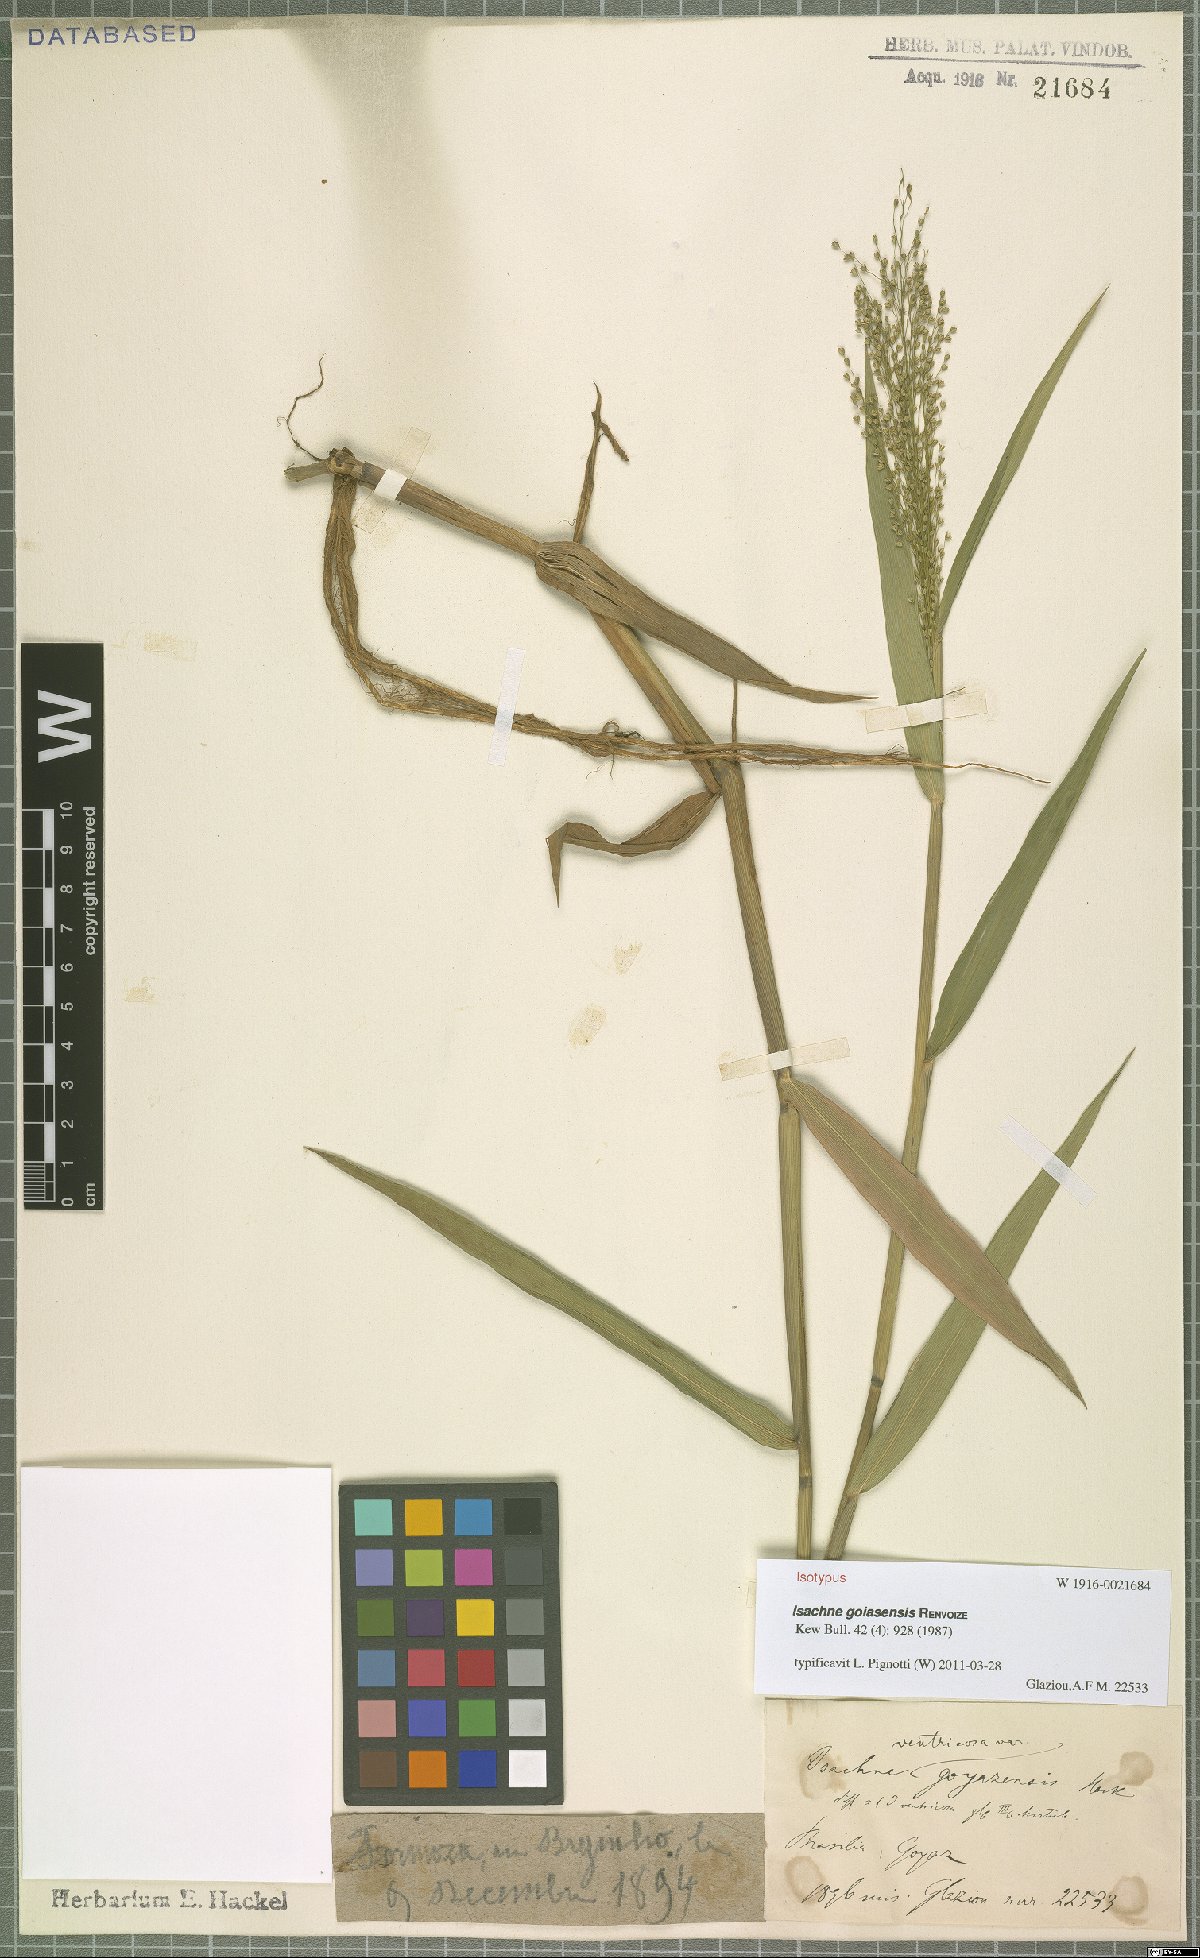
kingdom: Plantae
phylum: Tracheophyta
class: Liliopsida
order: Poales
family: Poaceae
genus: Isachne
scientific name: Isachne goiasensis
